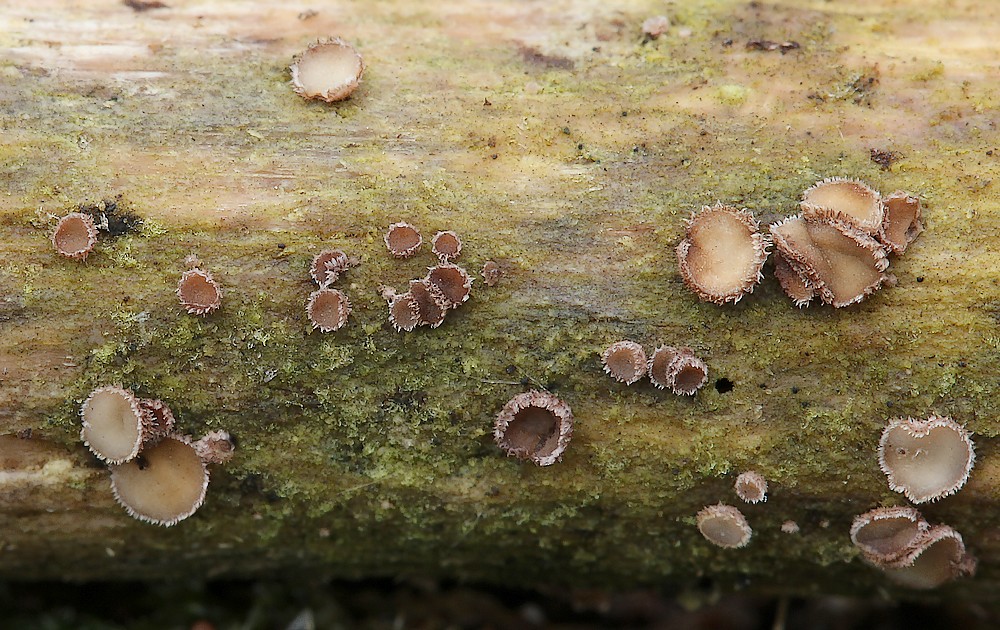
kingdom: Fungi
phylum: Ascomycota
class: Leotiomycetes
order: Helotiales
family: Hyaloscyphaceae
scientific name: Hyaloscyphaceae
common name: frynseskivefamilien
